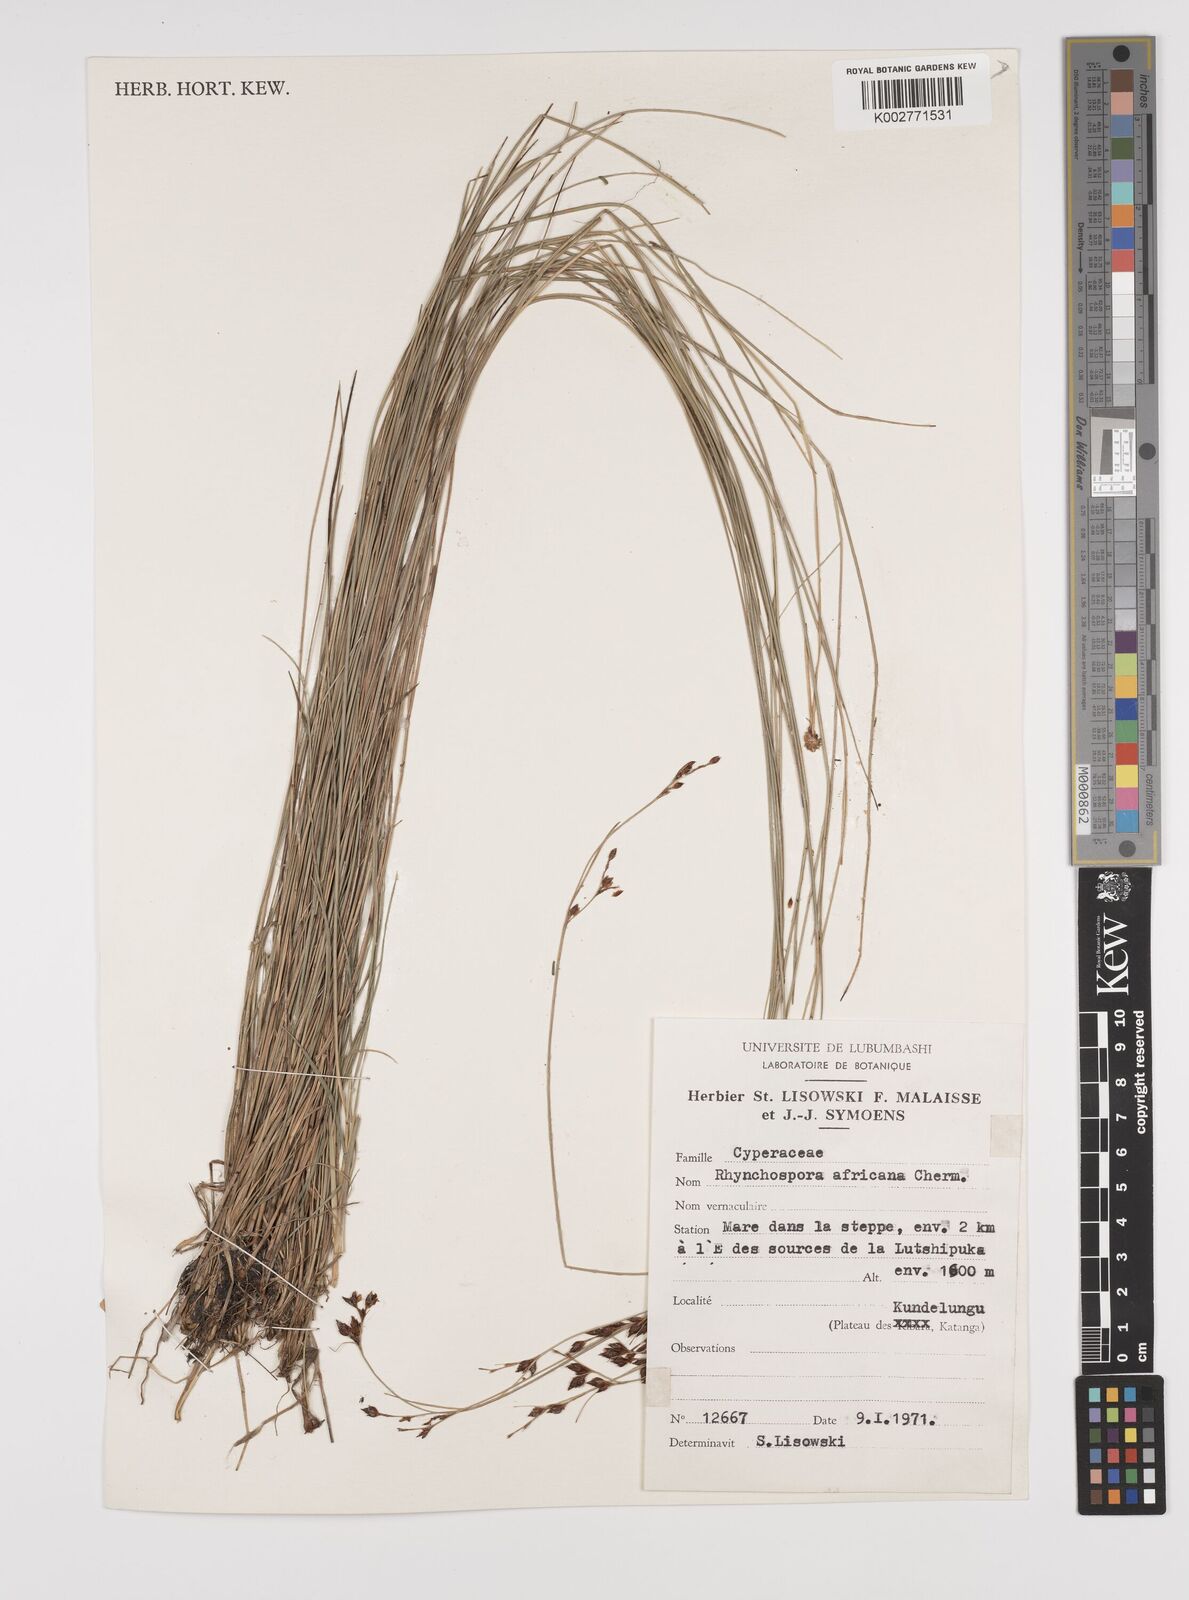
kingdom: Plantae
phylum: Tracheophyta
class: Liliopsida
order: Poales
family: Cyperaceae
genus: Rhynchospora
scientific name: Rhynchospora angolensis
